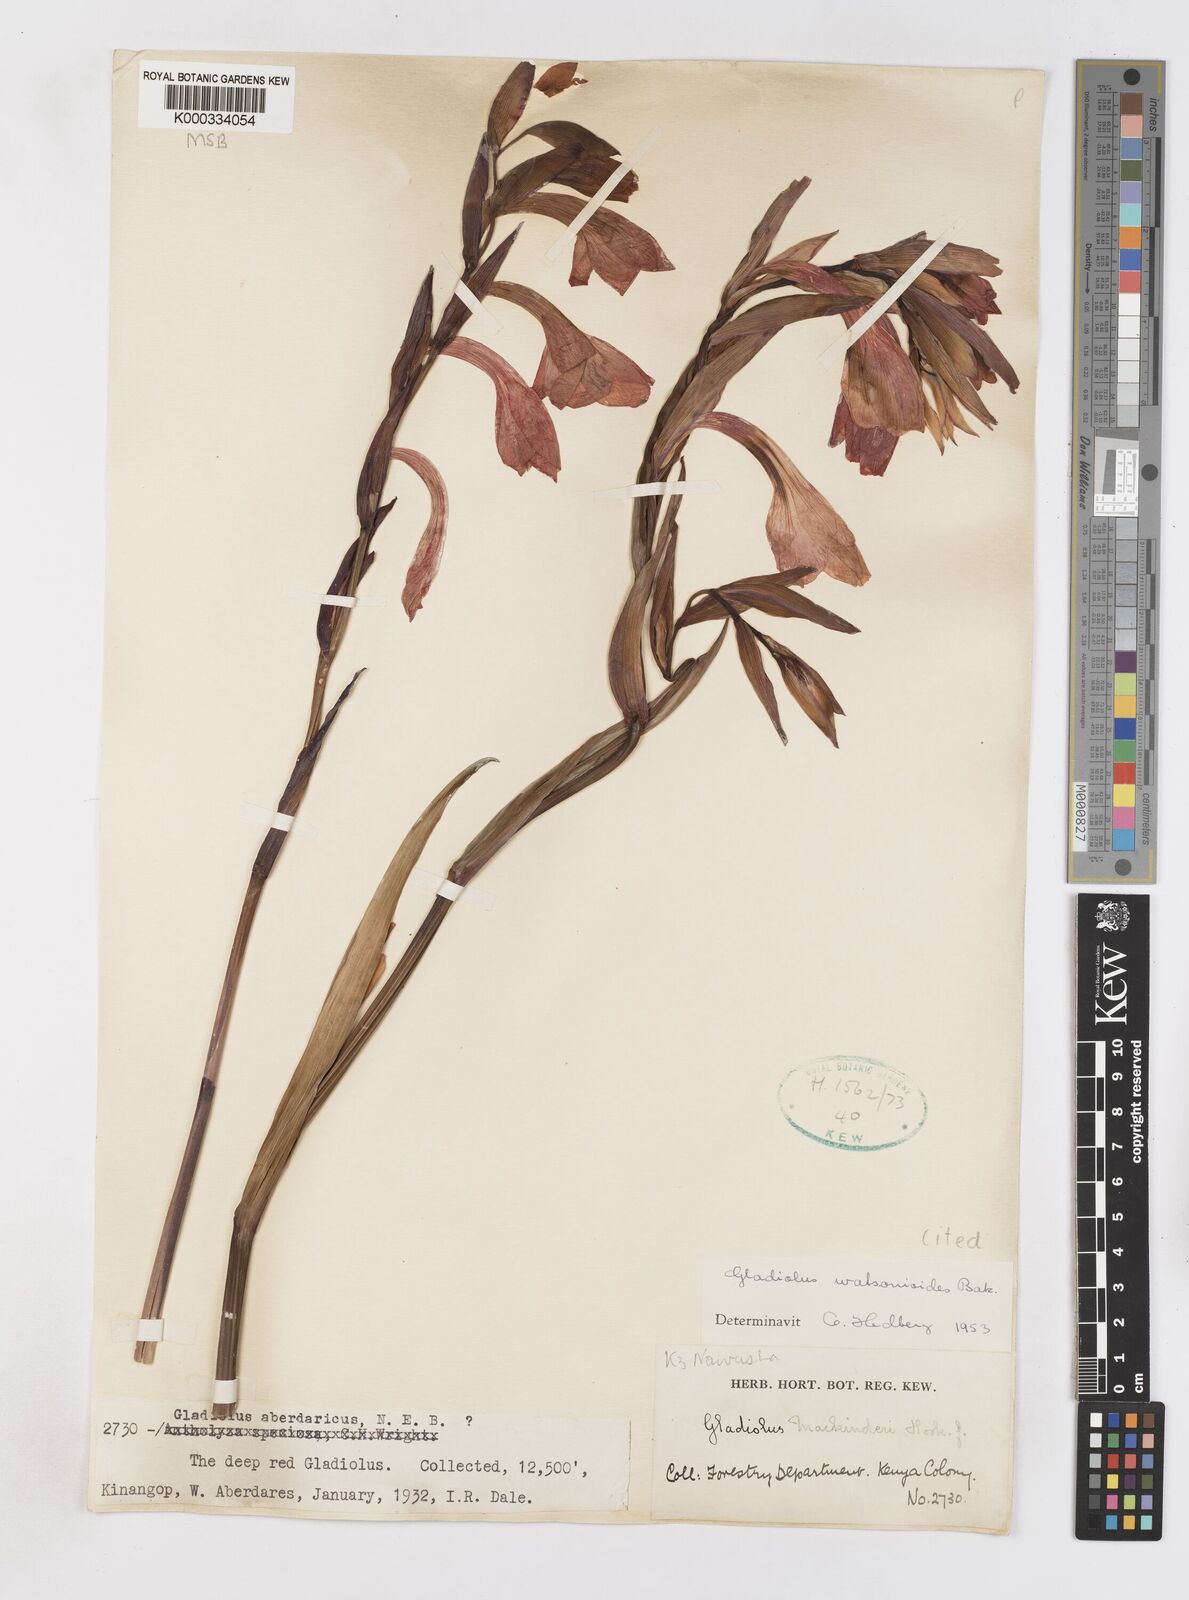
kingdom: Plantae
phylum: Tracheophyta
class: Liliopsida
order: Asparagales
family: Iridaceae
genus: Gladiolus
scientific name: Gladiolus watsonioides
